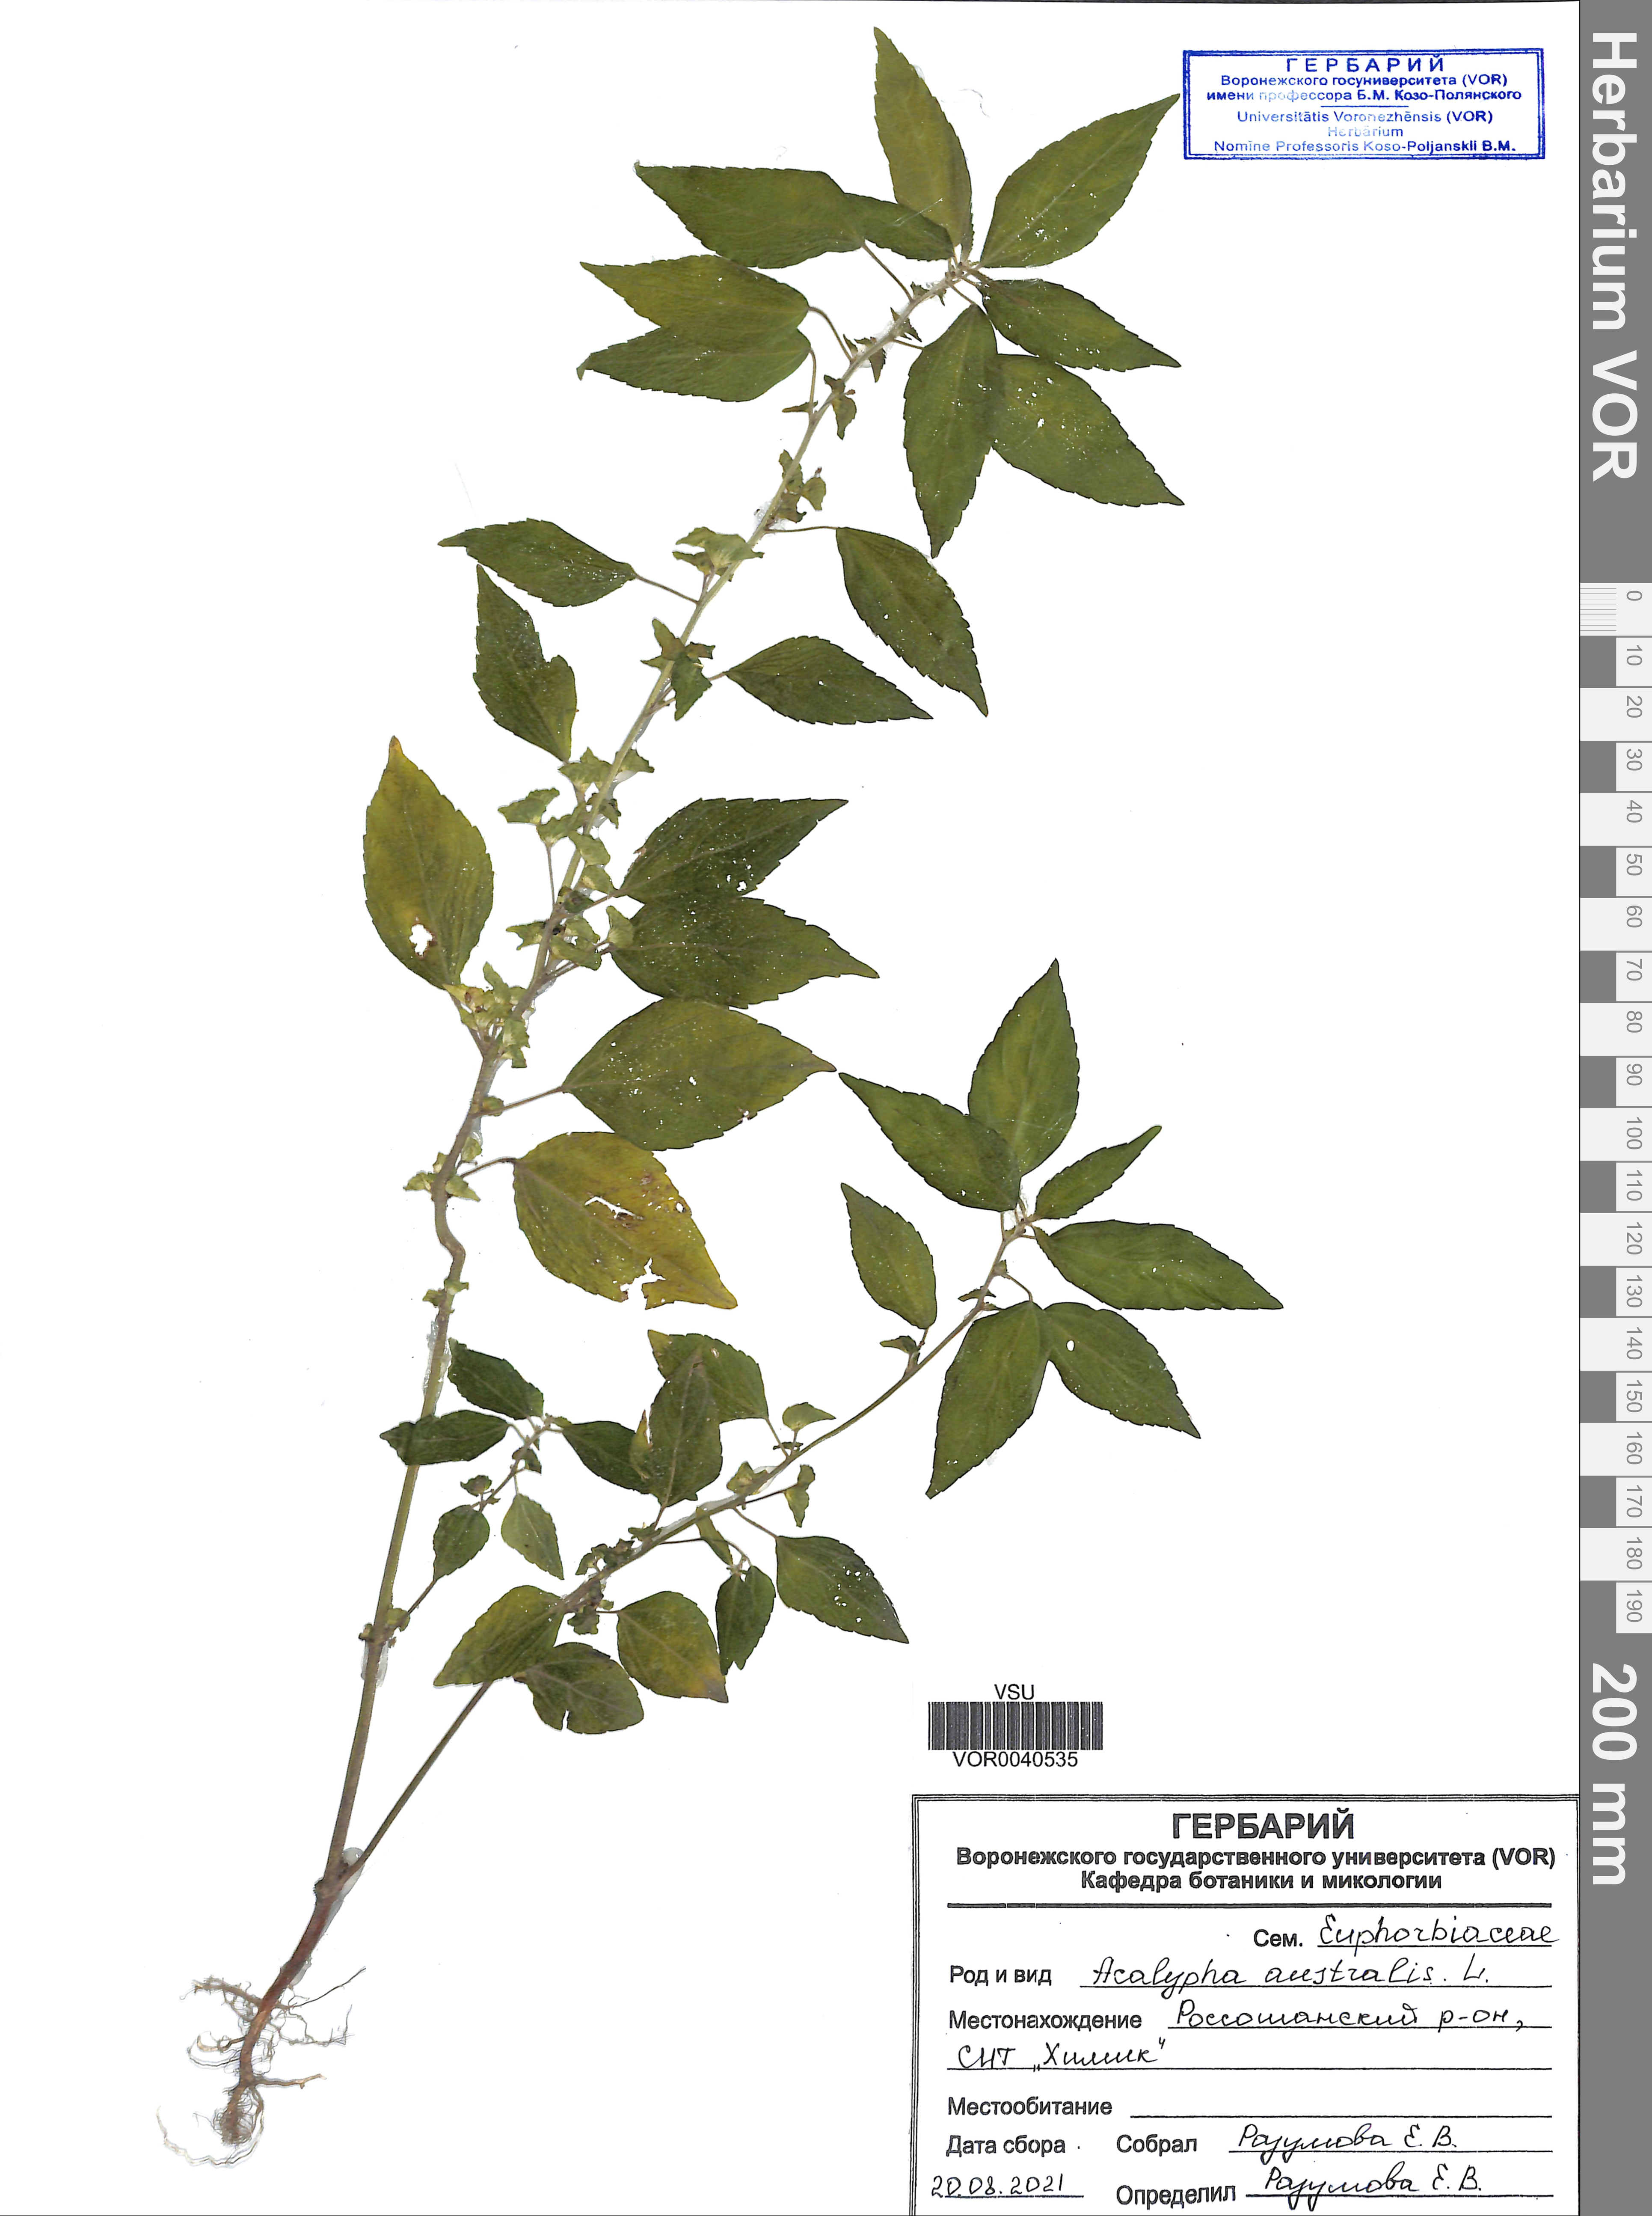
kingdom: Plantae
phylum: Tracheophyta
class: Magnoliopsida
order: Malpighiales
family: Euphorbiaceae
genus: Acalypha
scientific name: Acalypha australis
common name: Asian copperleaf
